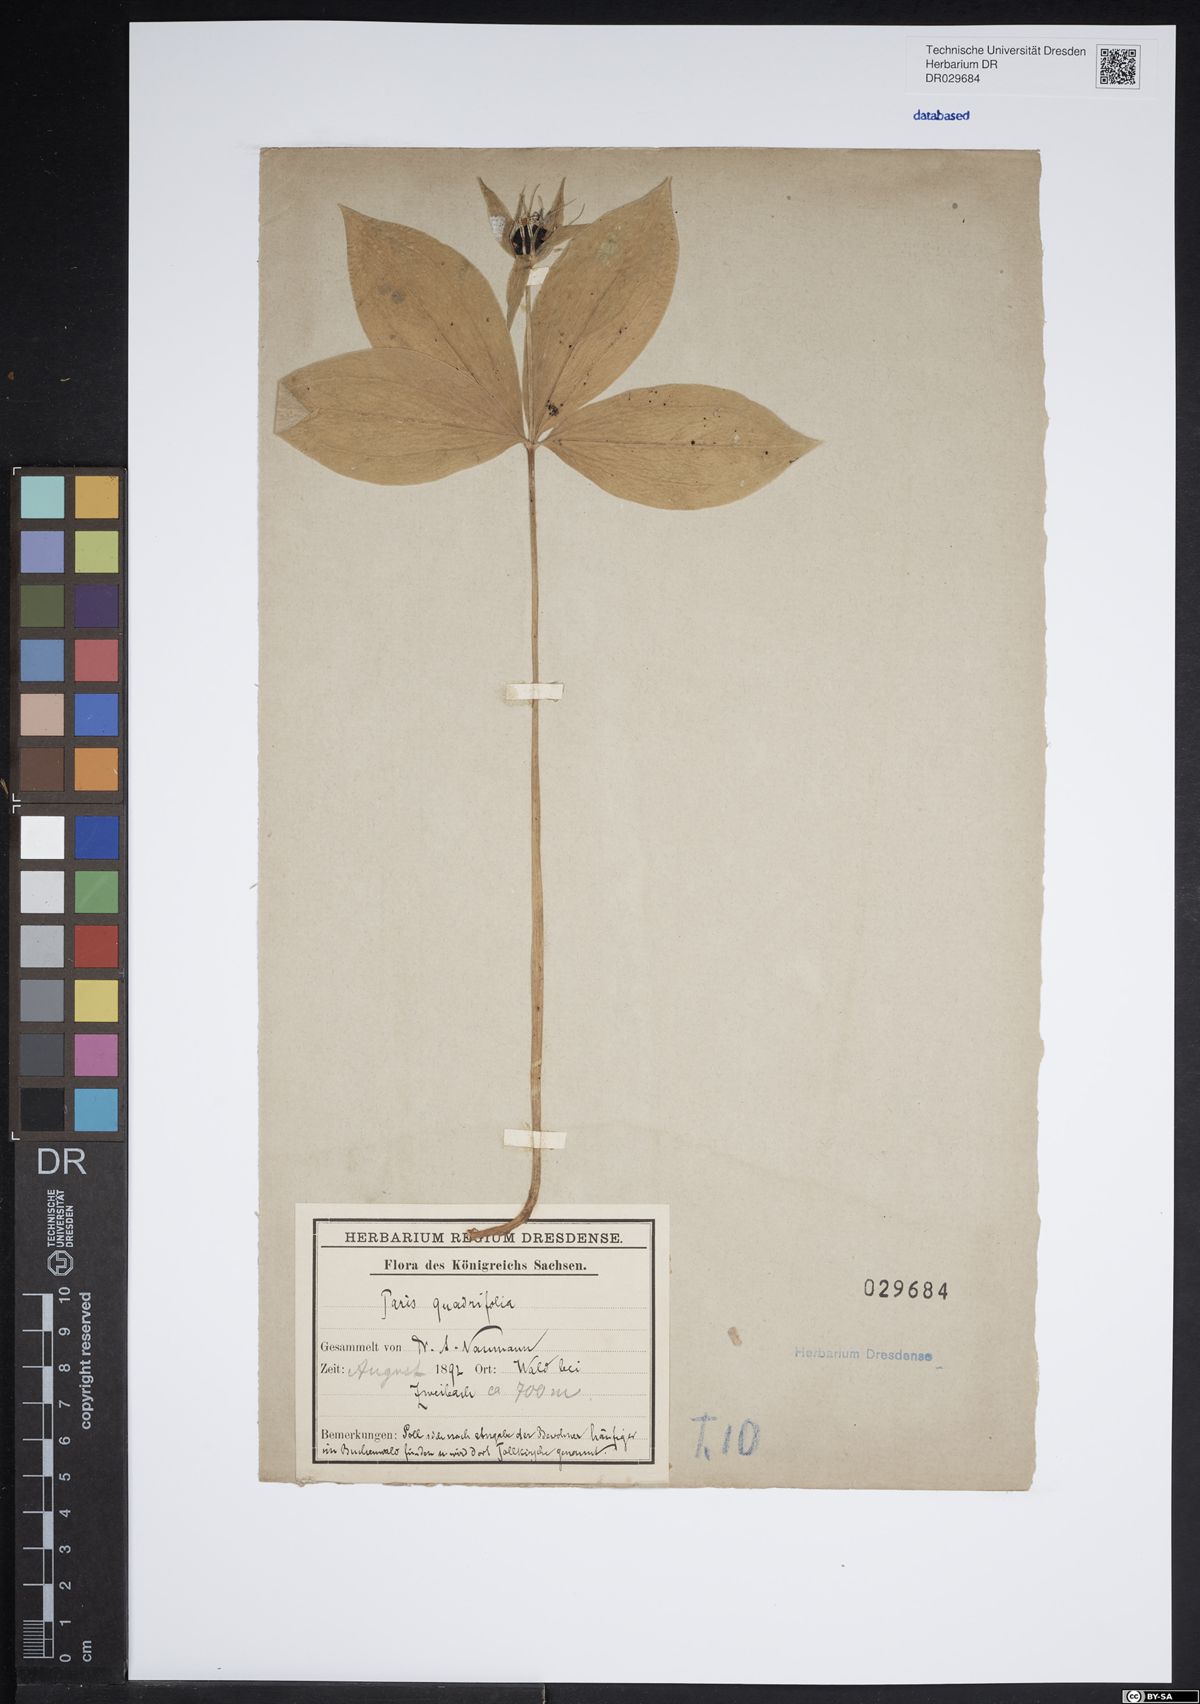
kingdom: Plantae
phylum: Tracheophyta
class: Liliopsida
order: Liliales
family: Melanthiaceae
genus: Paris
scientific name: Paris quadrifolia
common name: Herb-paris
